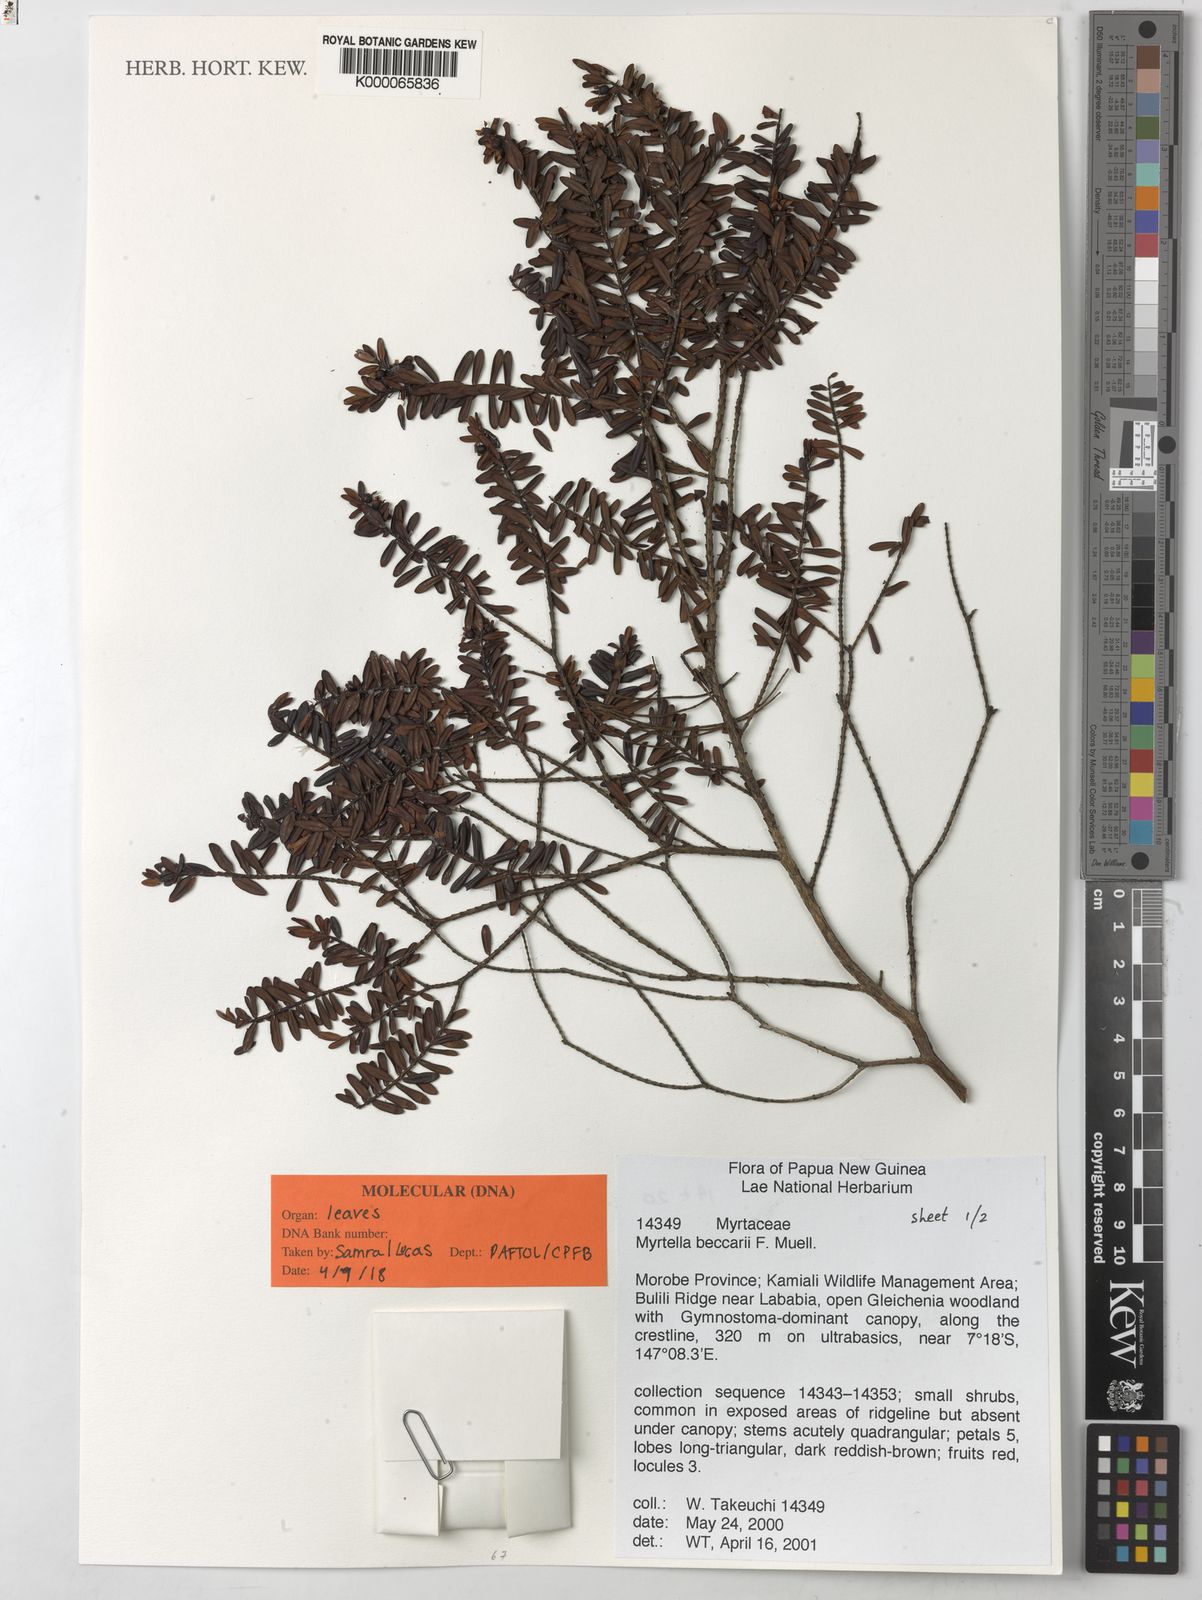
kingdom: Plantae
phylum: Tracheophyta
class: Magnoliopsida
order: Myrtales
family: Myrtaceae
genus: Myrtella
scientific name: Myrtella beccarii
